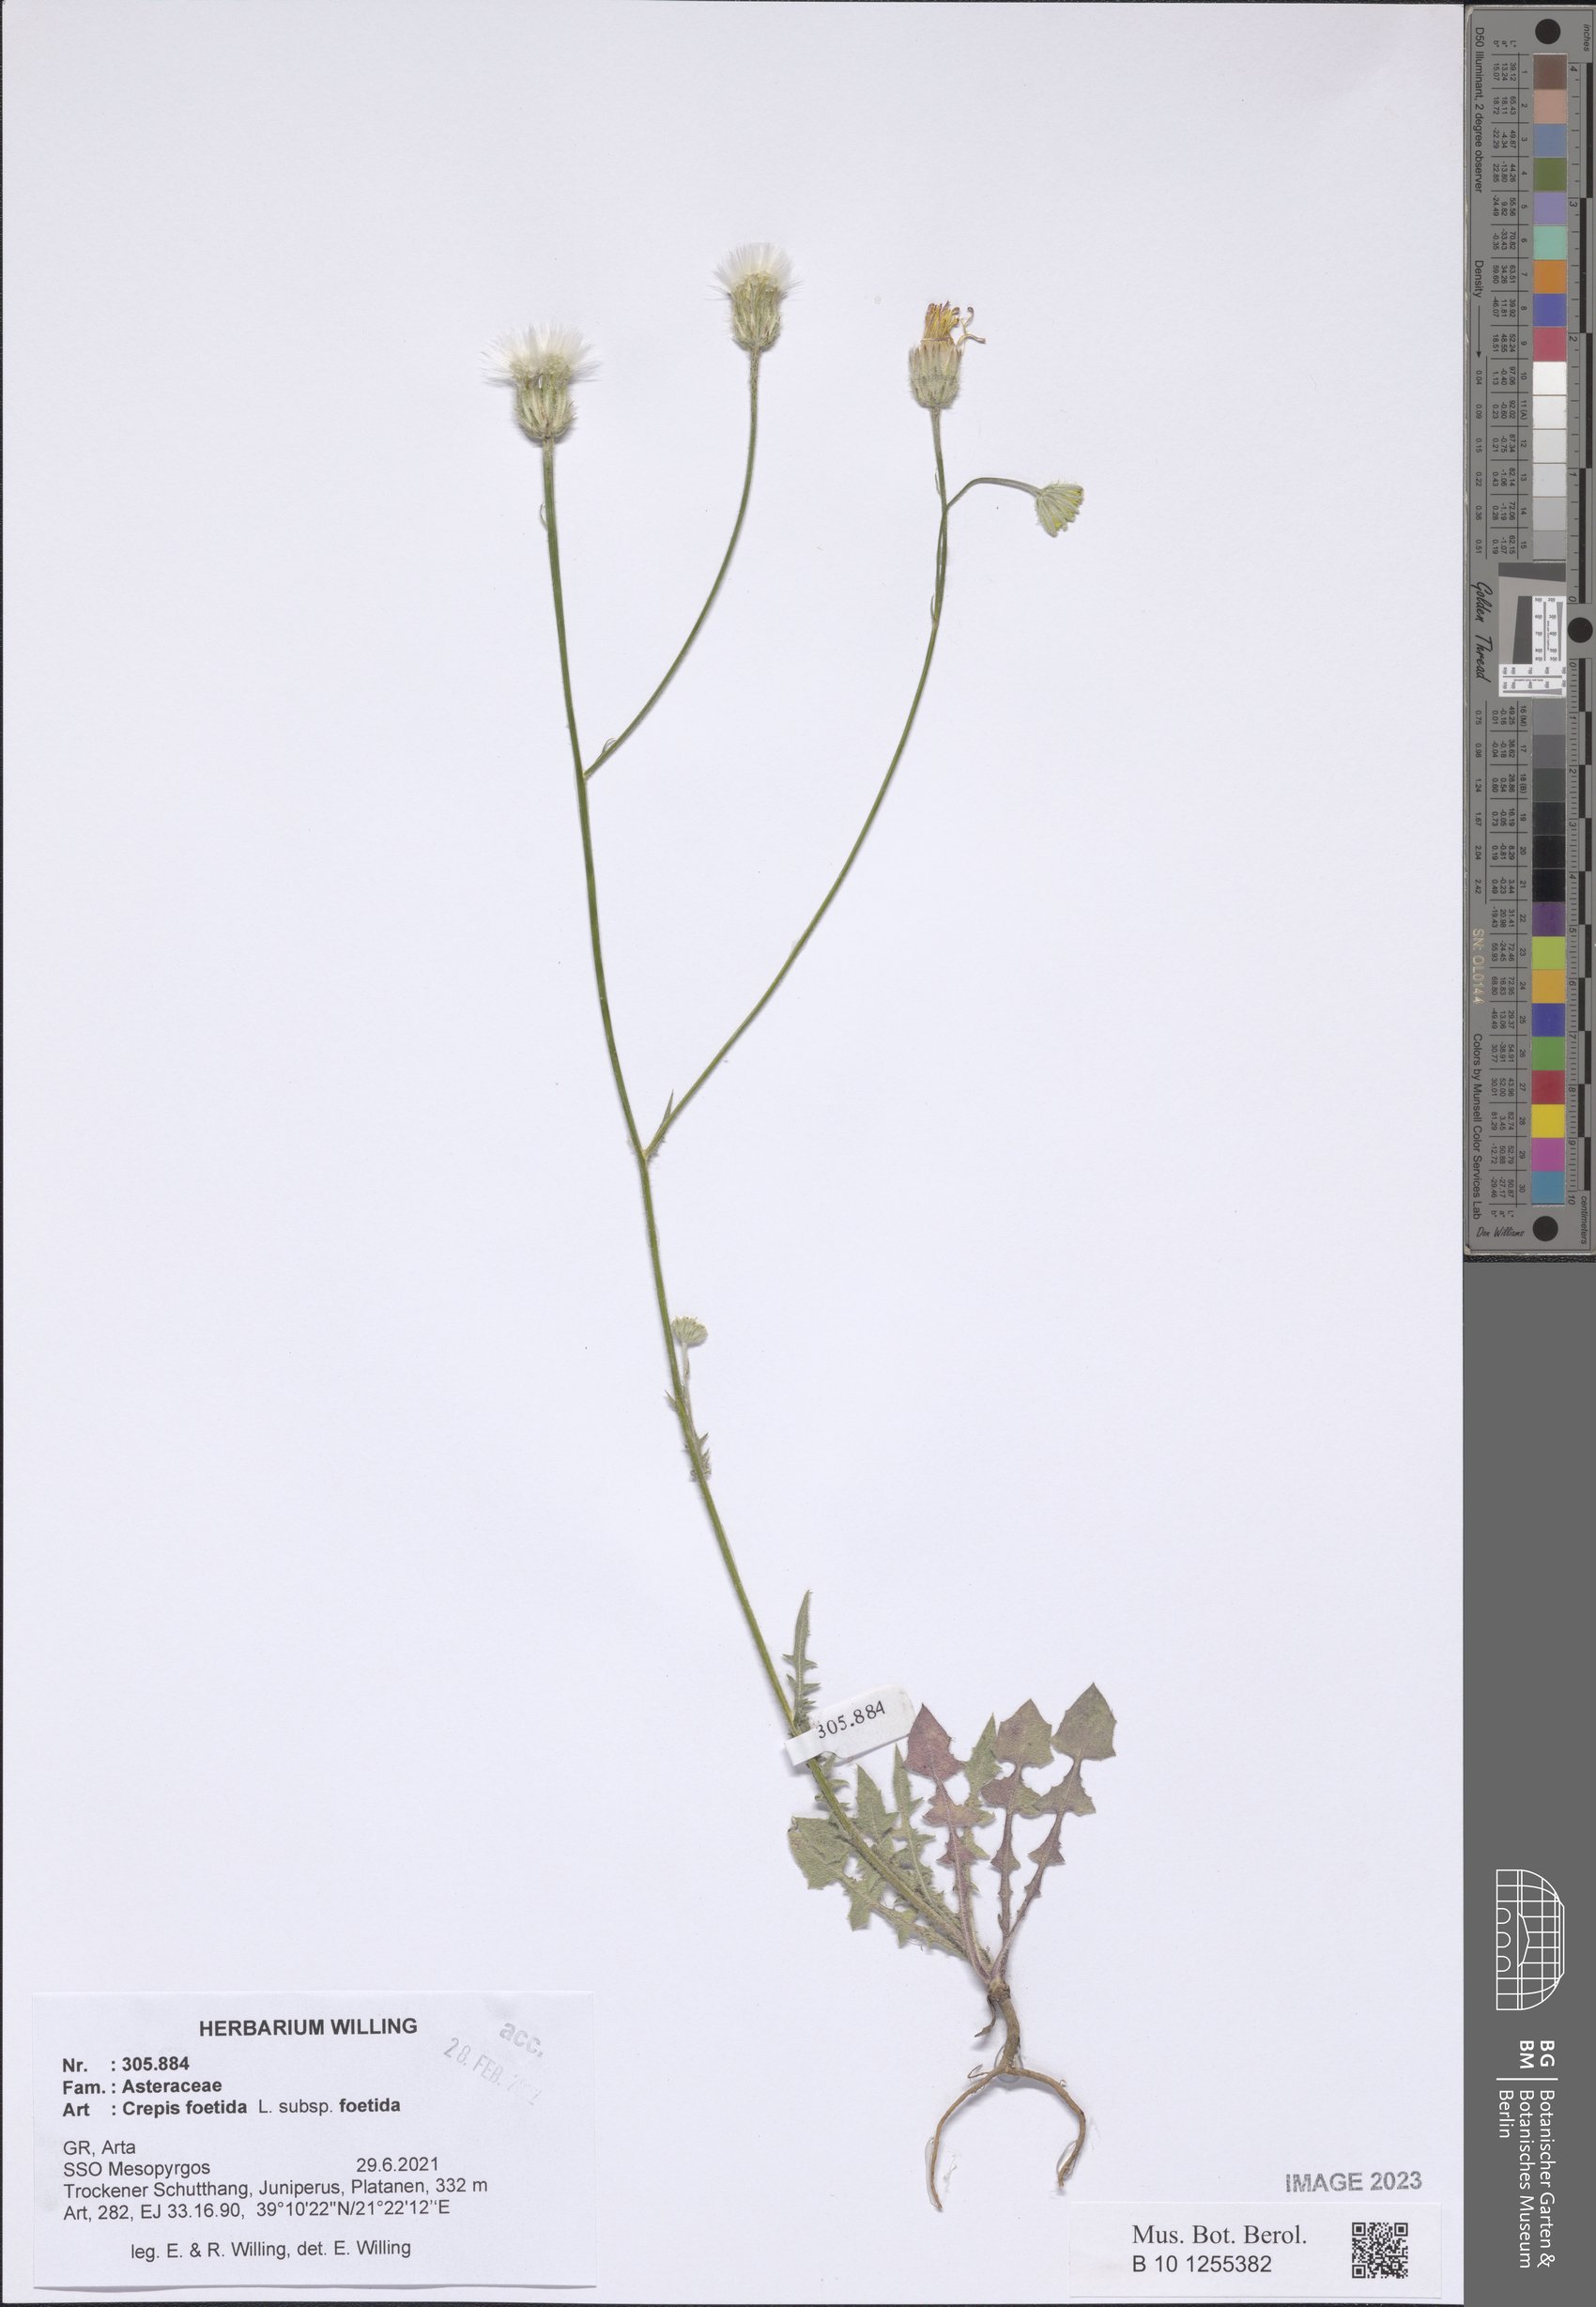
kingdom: Plantae
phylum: Tracheophyta
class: Magnoliopsida
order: Asterales
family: Asteraceae
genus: Crepis
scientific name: Crepis foetida
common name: Stinking hawk's-beard
